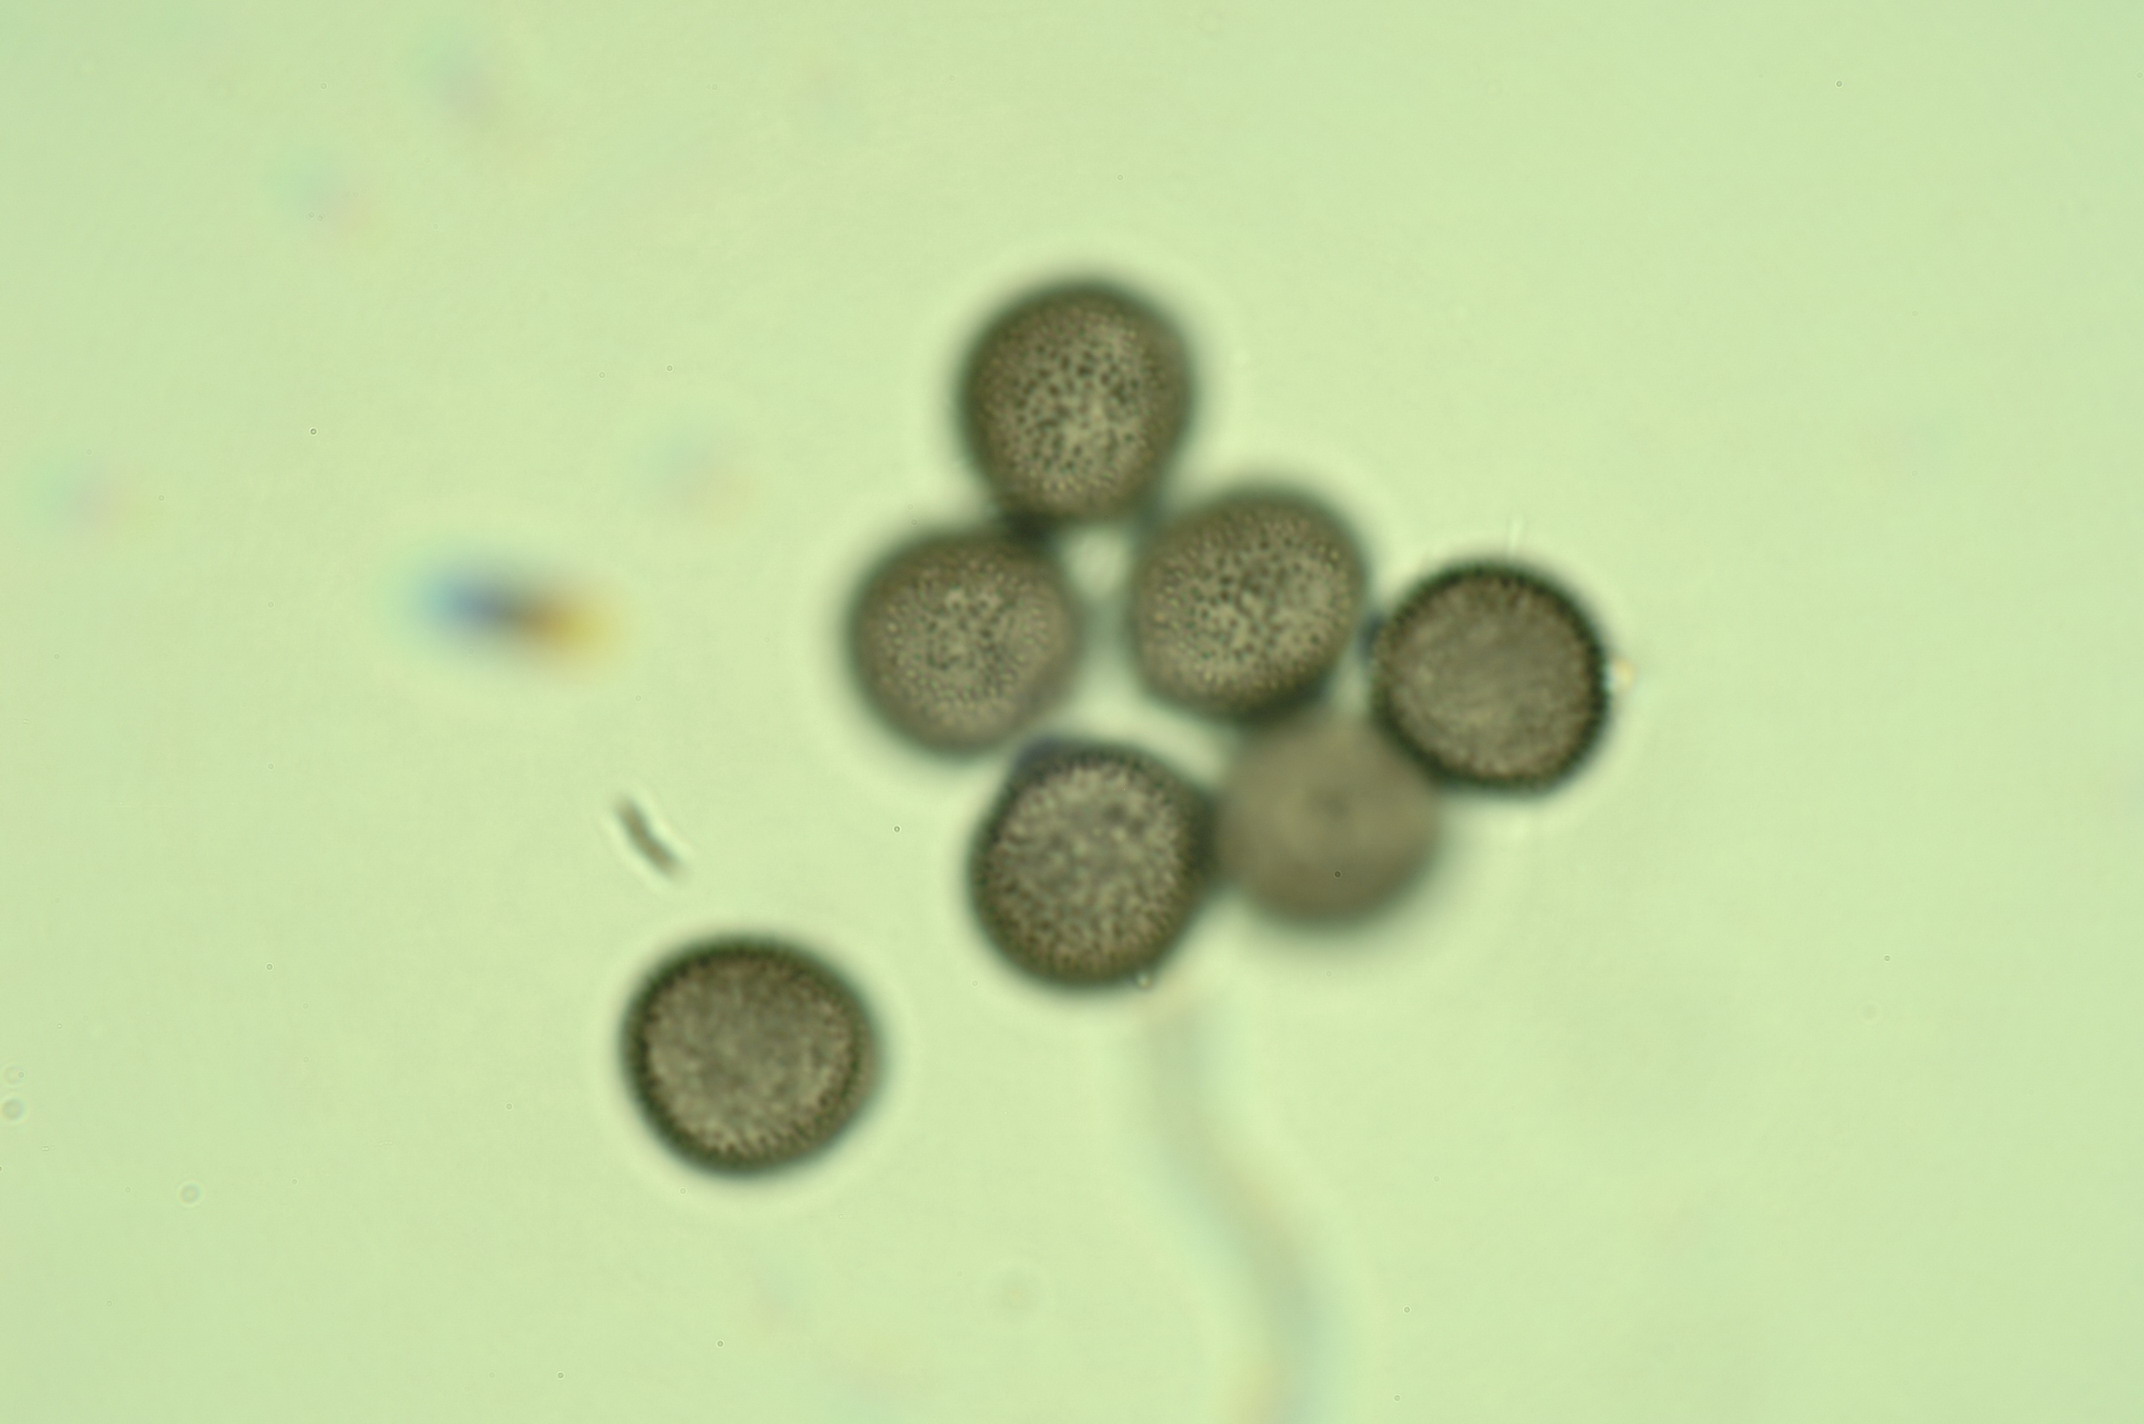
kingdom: Protozoa
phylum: Mycetozoa
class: Myxomycetes
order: Stemonitidales
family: Stemonitidaceae
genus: Lamproderma
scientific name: Lamproderma columbinum
